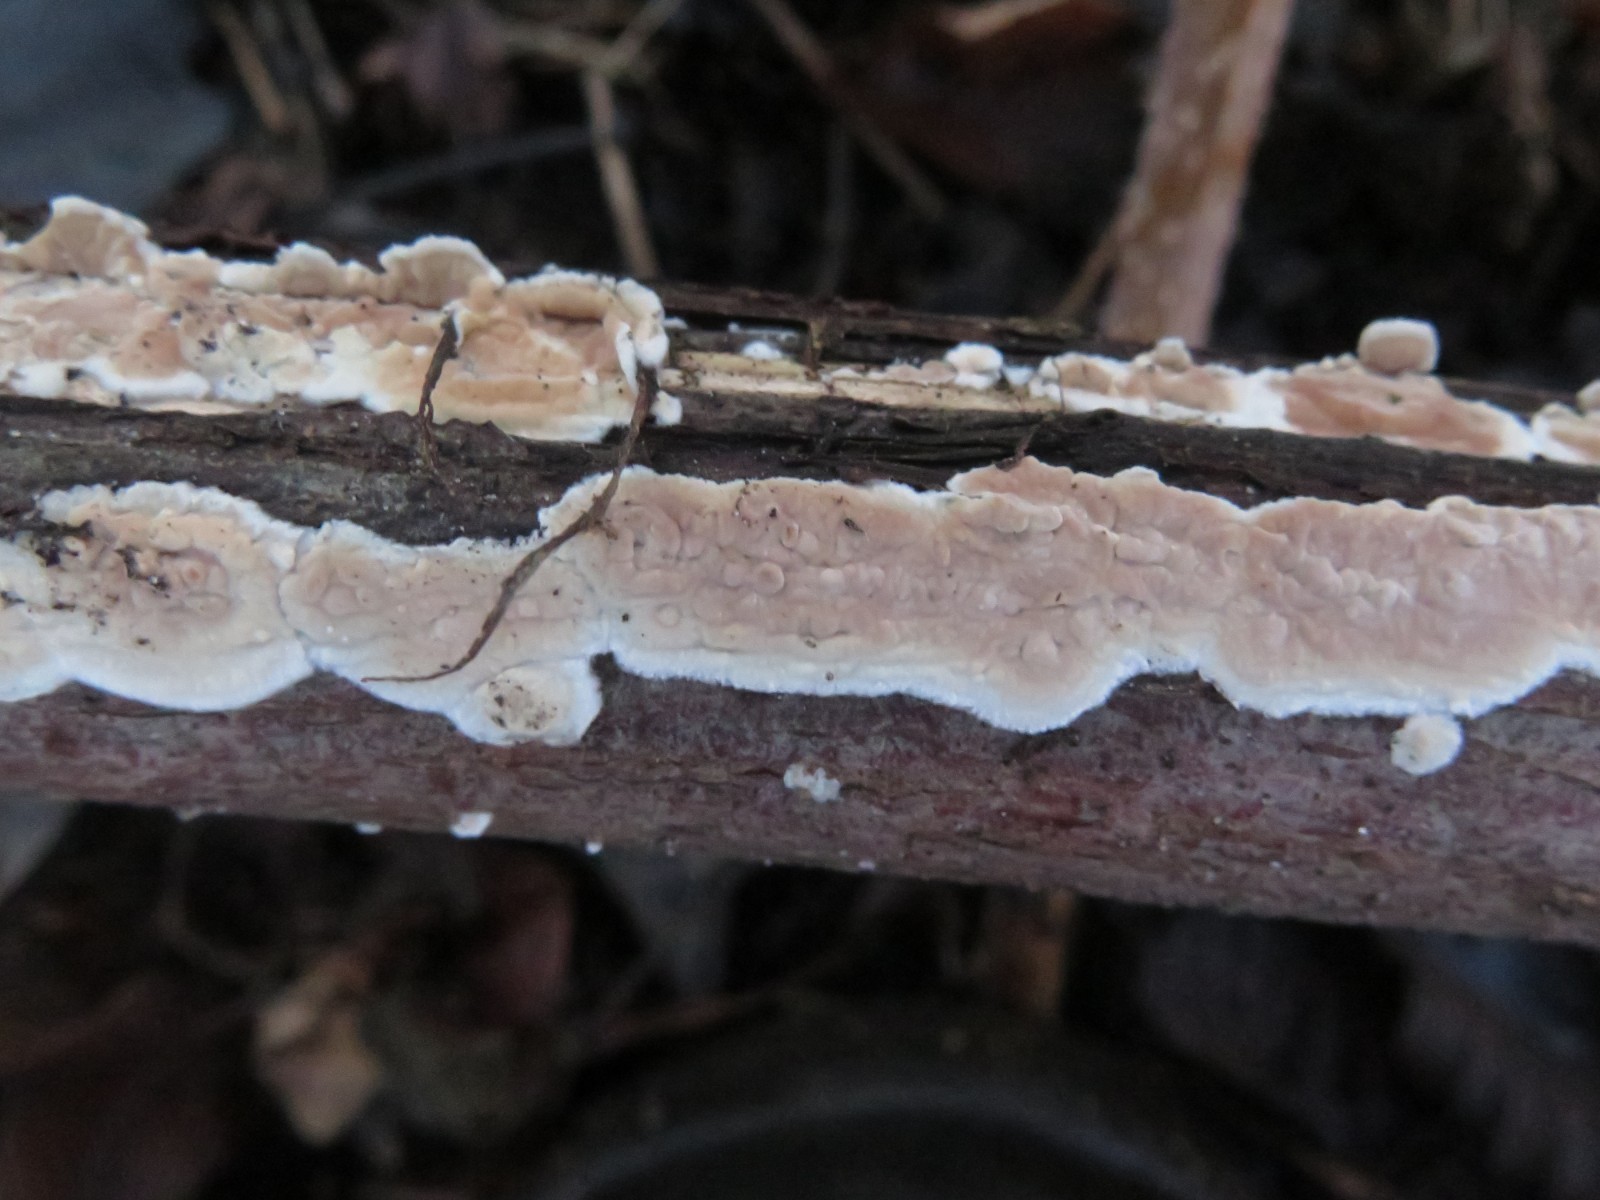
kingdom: Fungi
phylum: Basidiomycota
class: Agaricomycetes
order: Agaricales
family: Physalacriaceae
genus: Cylindrobasidium
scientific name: Cylindrobasidium evolvens
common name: sprækkehinde
